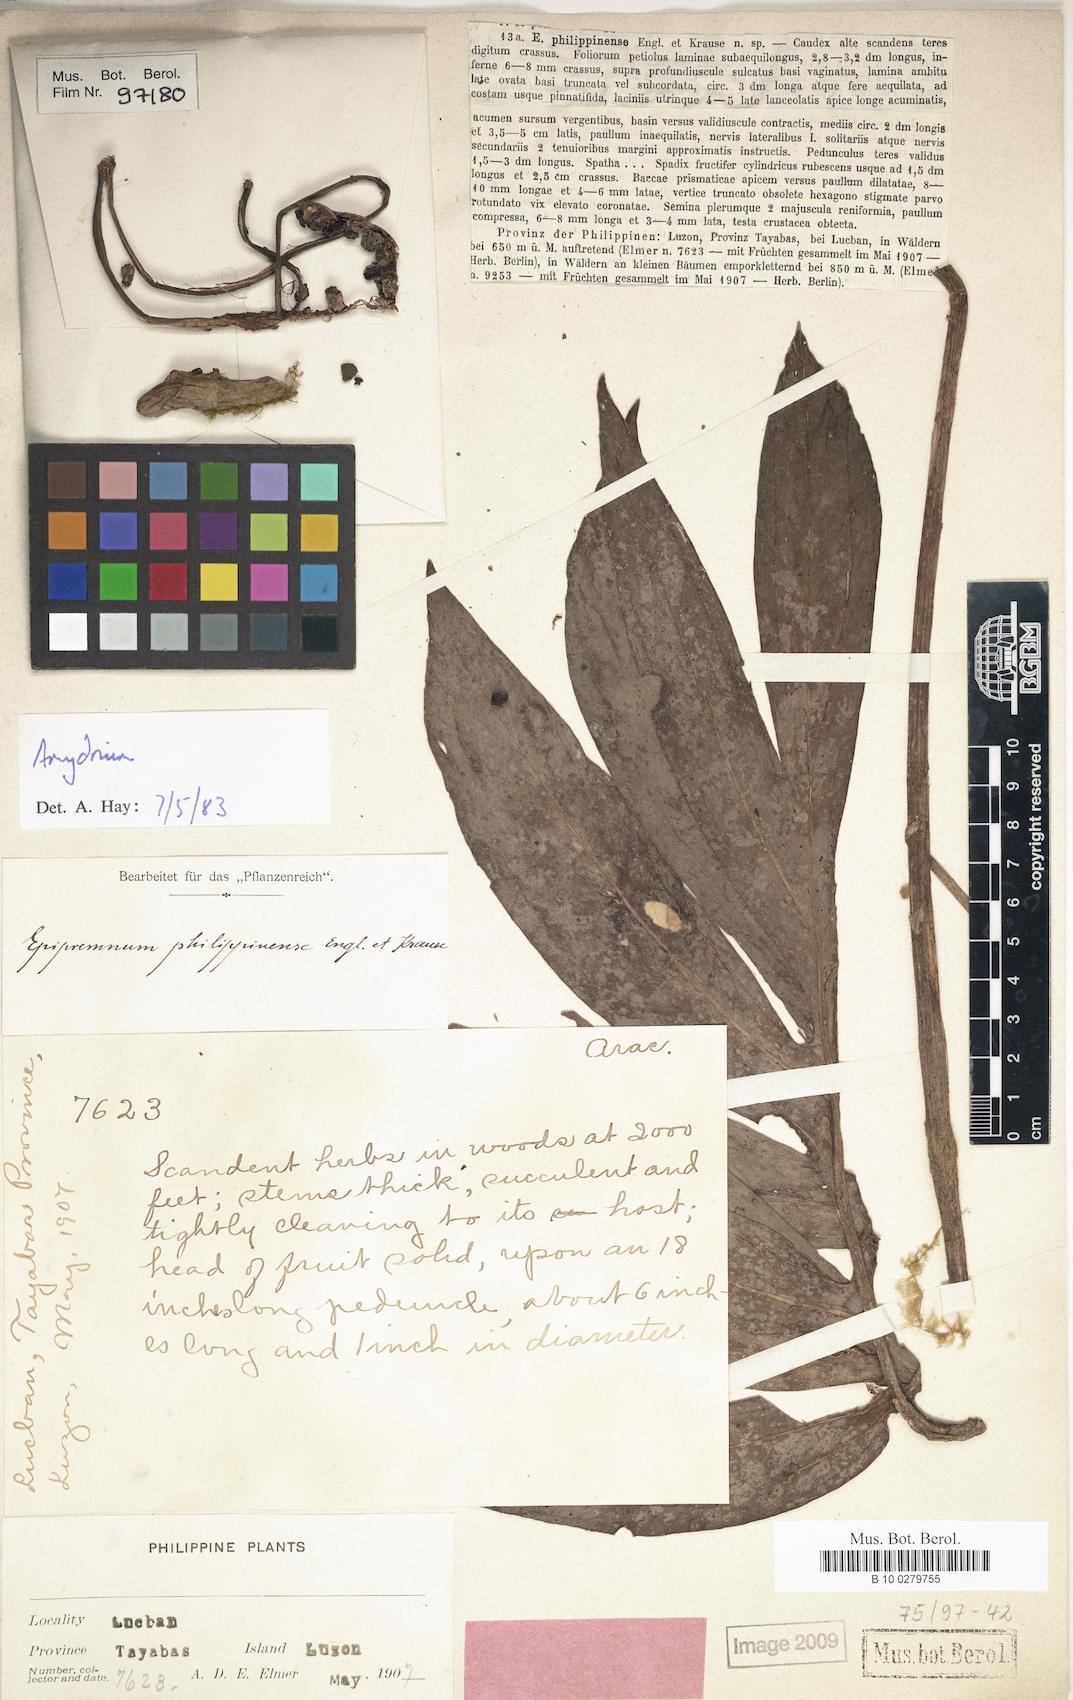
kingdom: Plantae
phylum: Tracheophyta
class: Liliopsida
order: Alismatales
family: Araceae
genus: Amydrium
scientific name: Amydrium zippelianum
